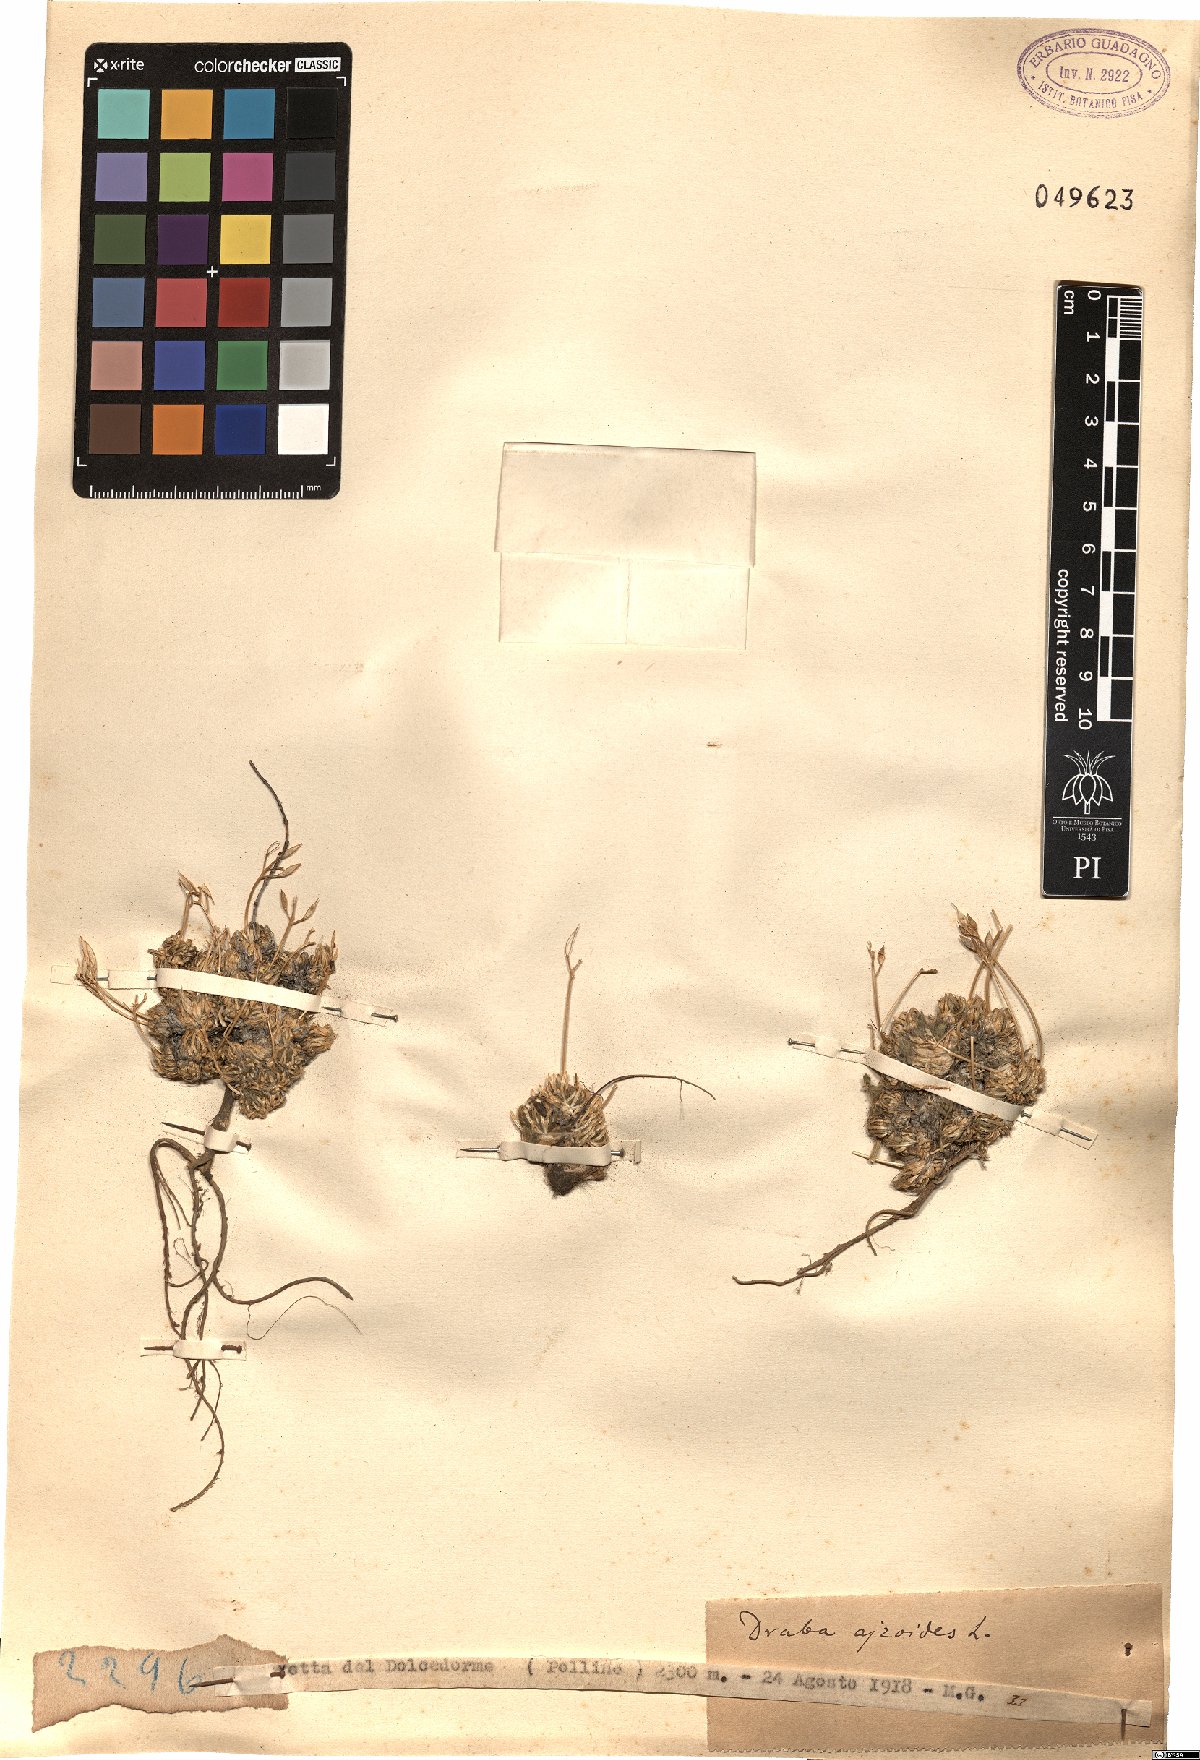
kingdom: Plantae
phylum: Tracheophyta
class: Magnoliopsida
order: Brassicales
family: Brassicaceae
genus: Draba
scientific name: Draba aizoides
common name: Yellow whitlowgrass
